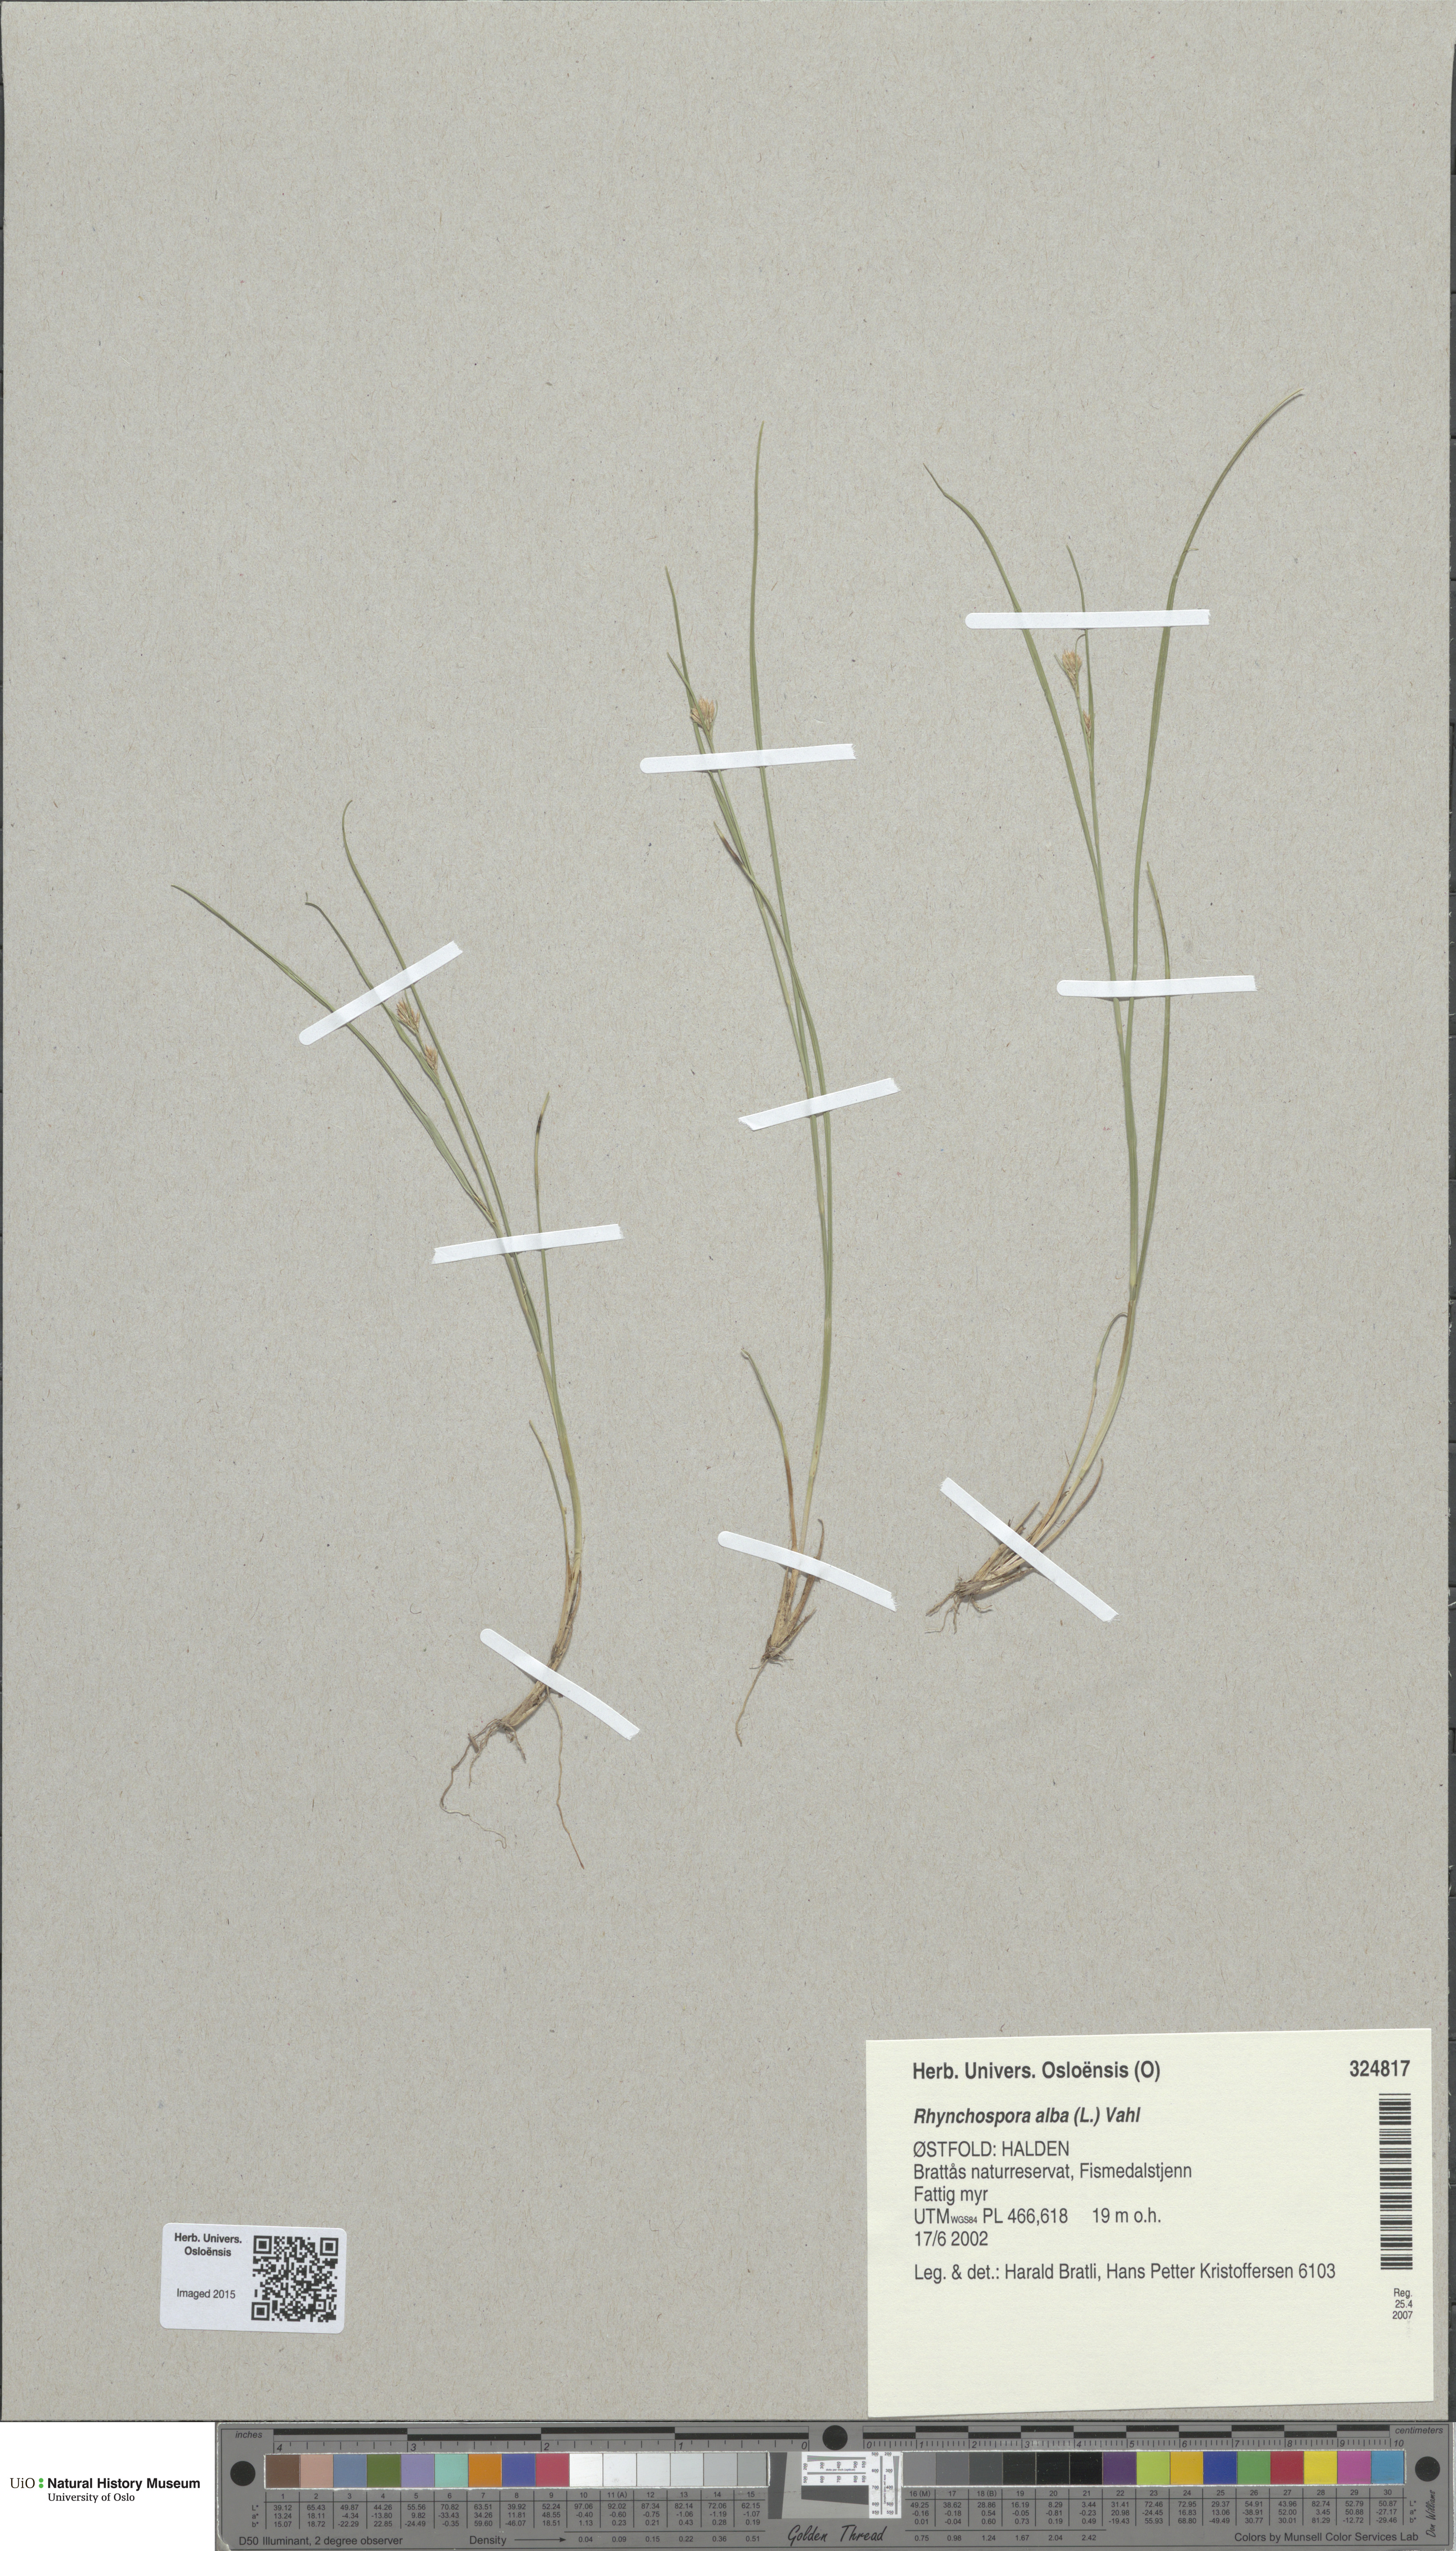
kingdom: Plantae
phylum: Tracheophyta
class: Liliopsida
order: Poales
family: Cyperaceae
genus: Rhynchospora
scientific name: Rhynchospora alba
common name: White beak-sedge
